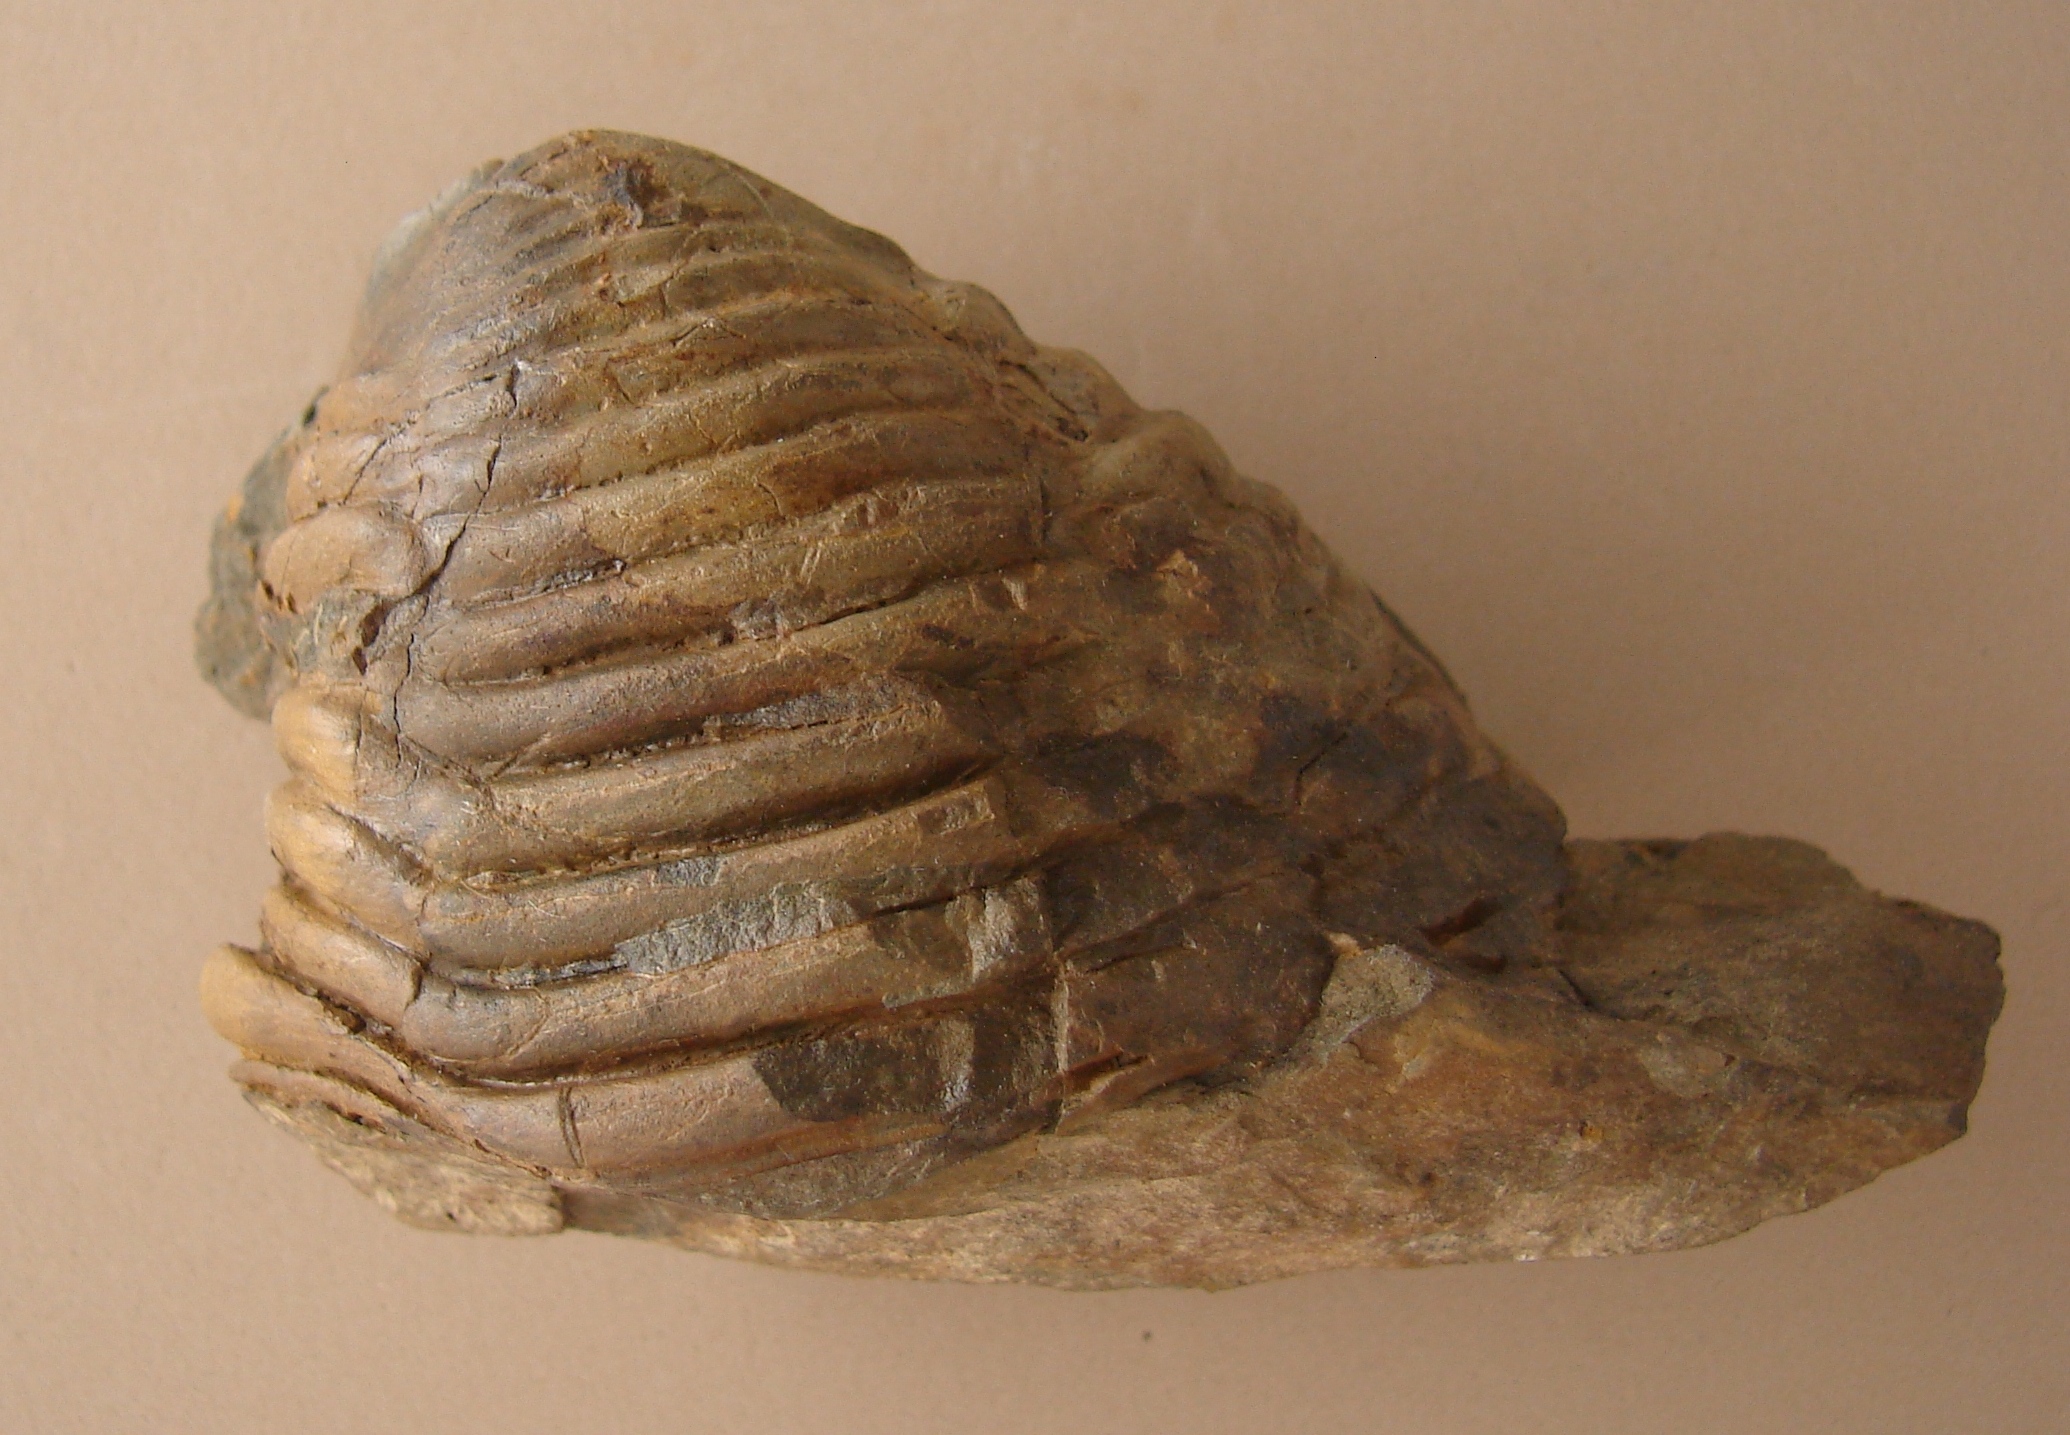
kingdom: Animalia
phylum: Arthropoda
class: Trilobita
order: Phacopida
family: Homalonotidae
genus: Digonus
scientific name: Digonus
